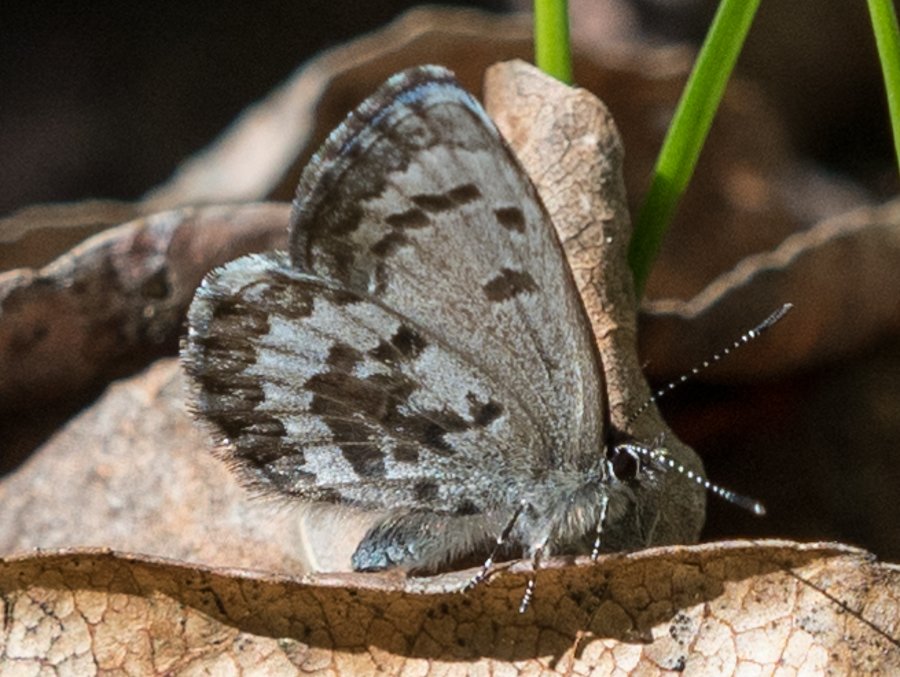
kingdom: Animalia
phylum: Arthropoda
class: Insecta
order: Lepidoptera
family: Lycaenidae
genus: Celastrina
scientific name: Celastrina lucia
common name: Northern Spring Azure
